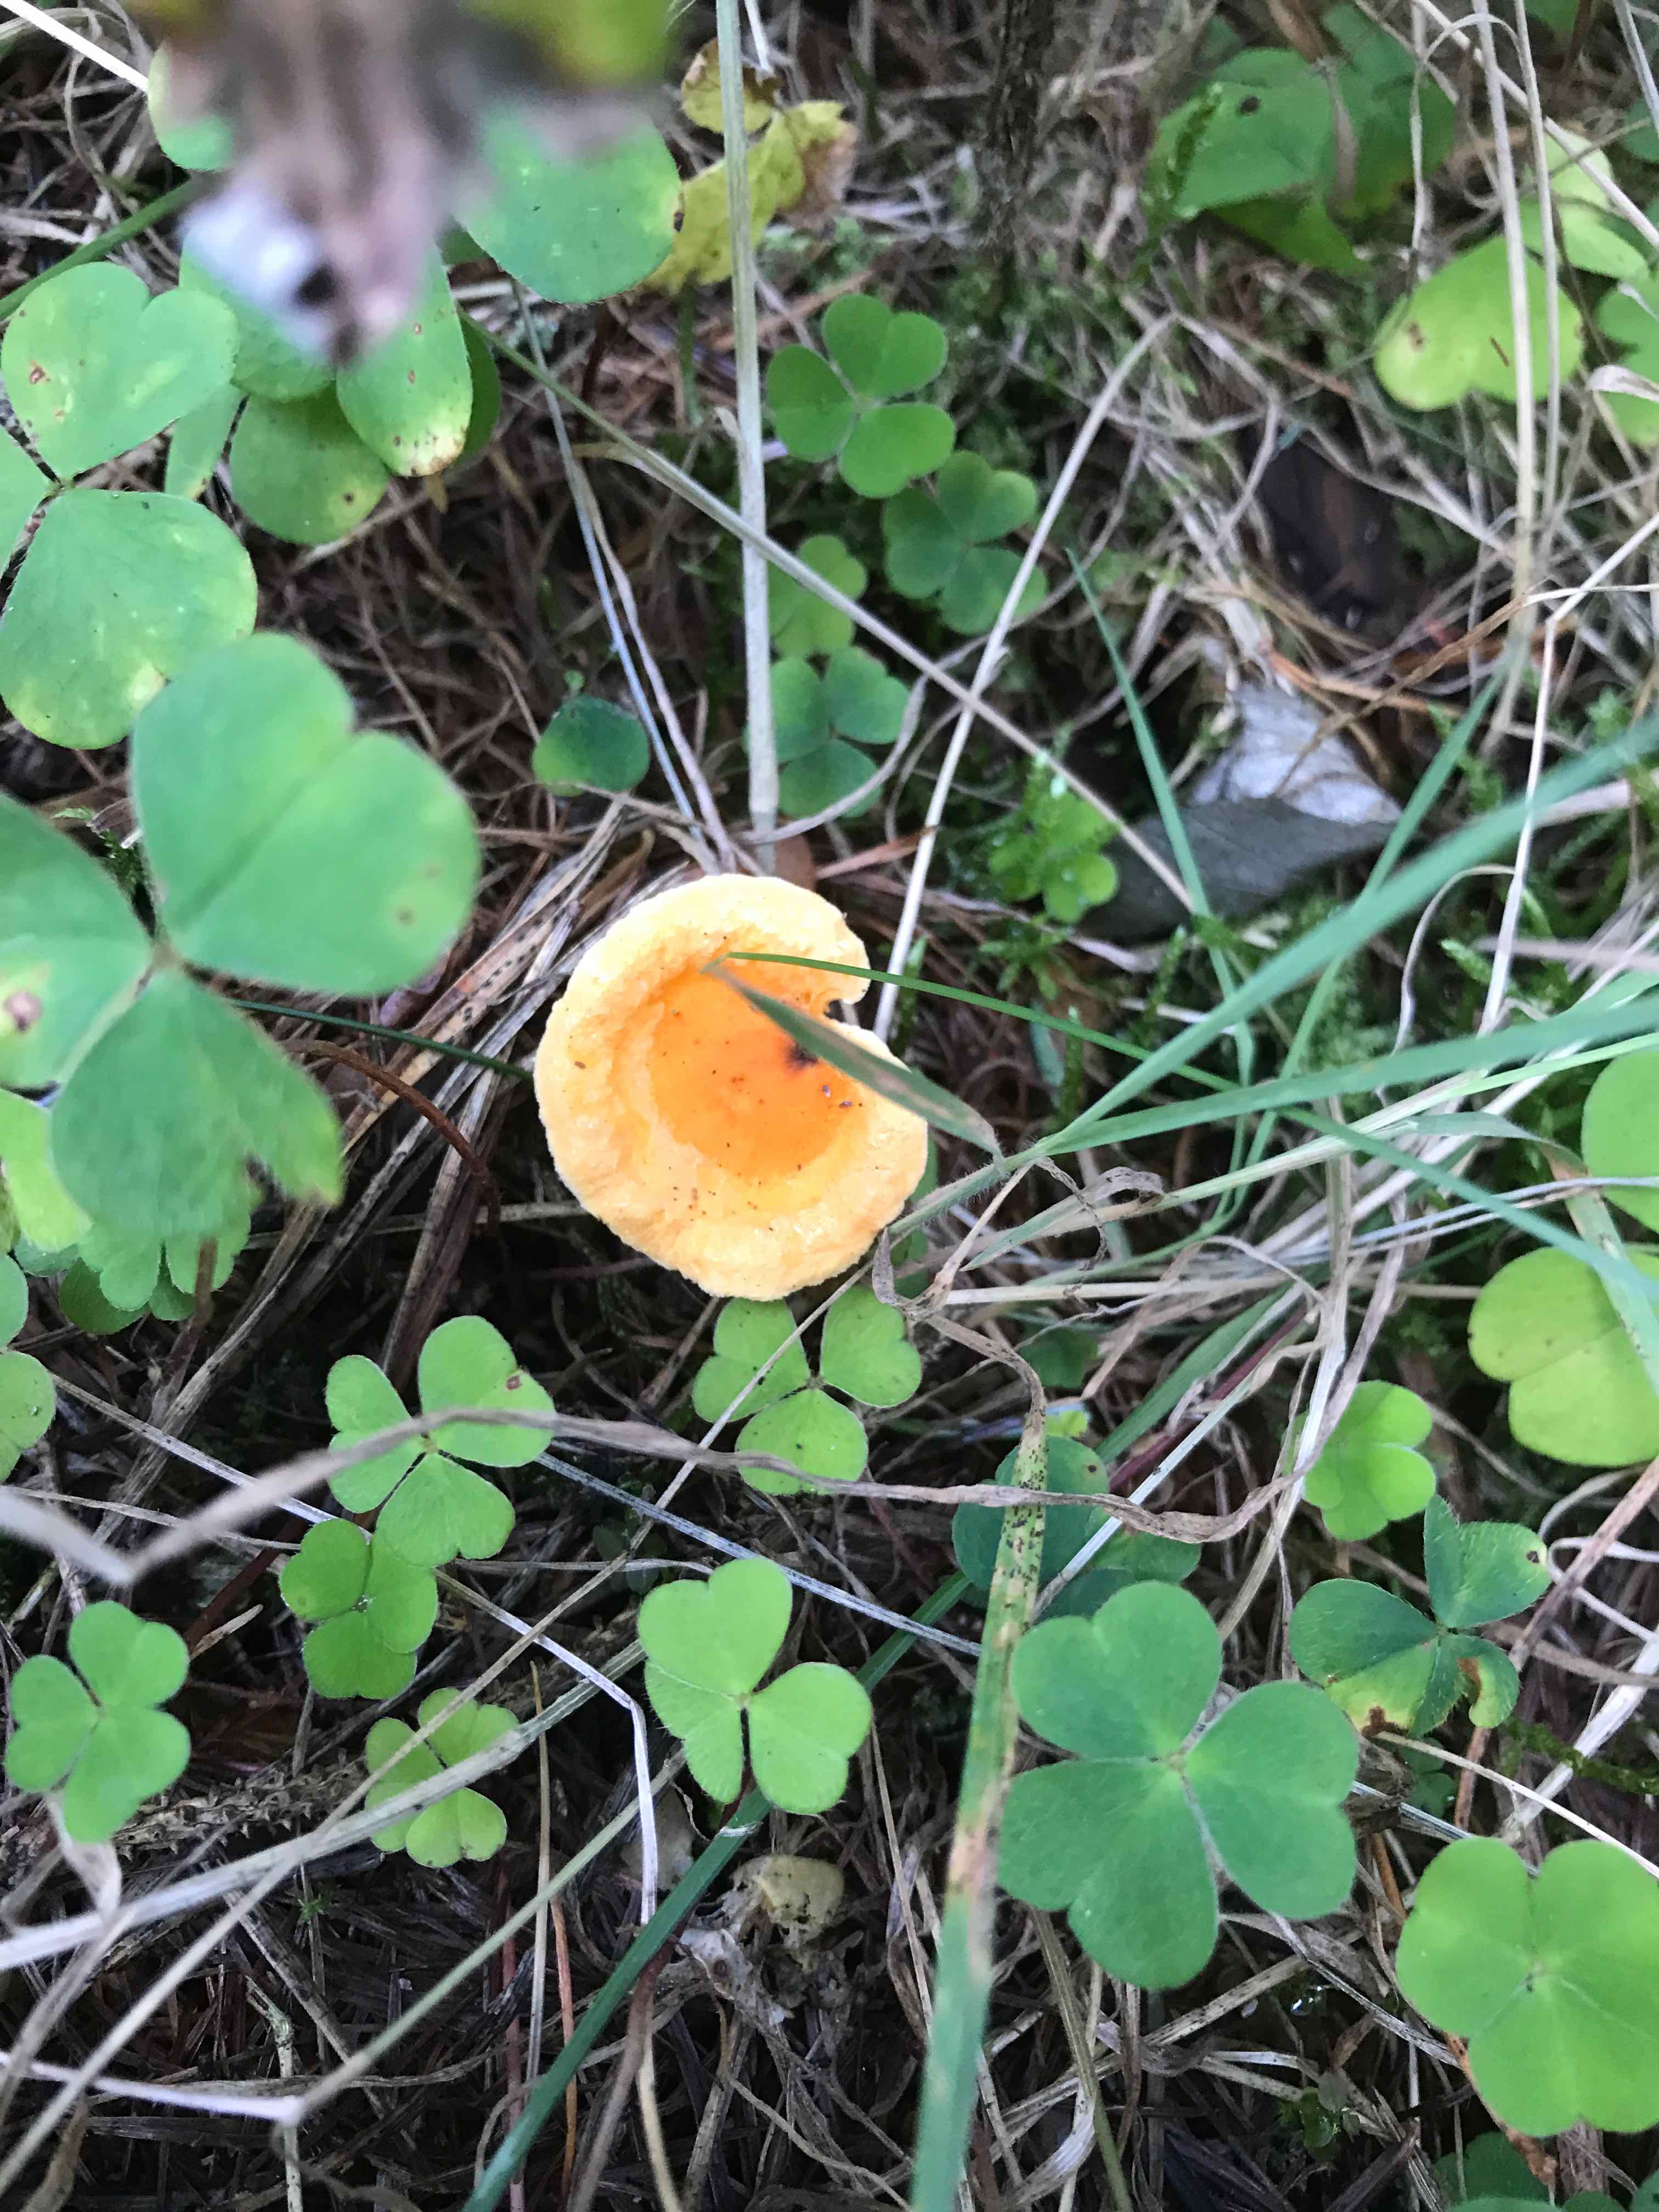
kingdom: Fungi
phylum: Basidiomycota
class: Agaricomycetes
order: Boletales
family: Hygrophoropsidaceae
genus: Hygrophoropsis
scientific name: Hygrophoropsis aurantiaca
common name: almindelig orangekantarel
